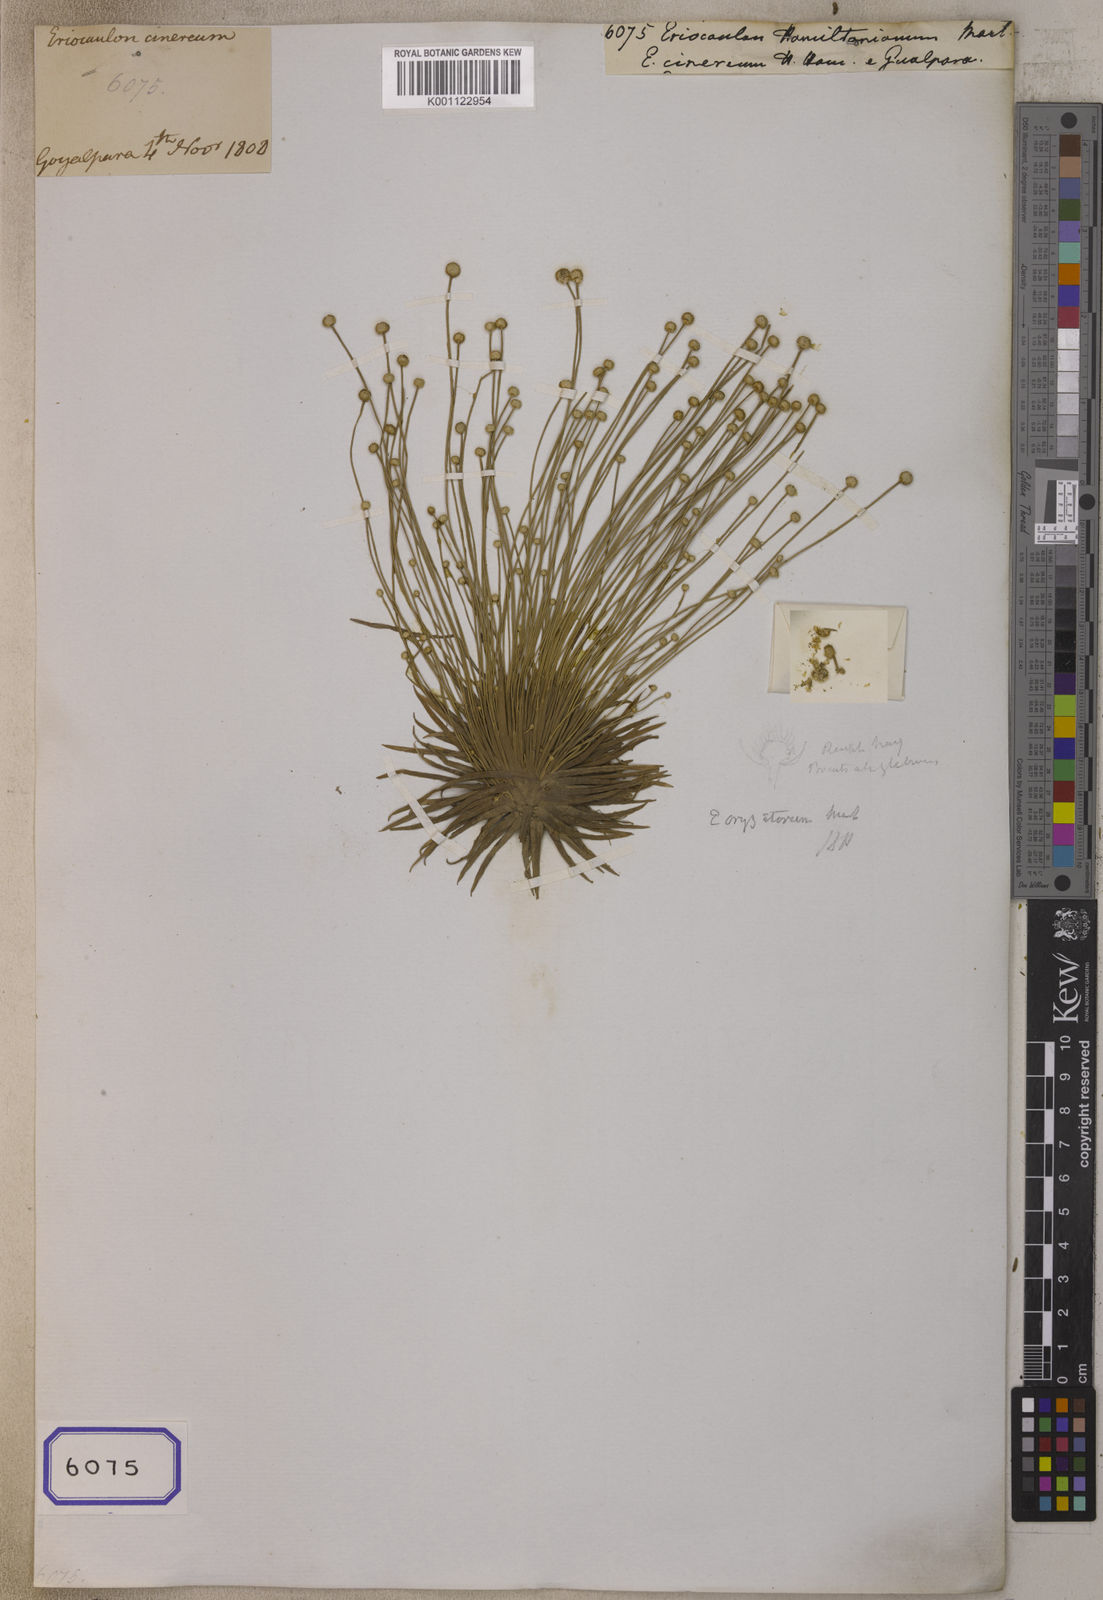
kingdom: Plantae
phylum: Tracheophyta
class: Liliopsida
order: Poales
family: Eriocaulaceae
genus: Eriocaulon
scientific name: Eriocaulon hamiltonianum
